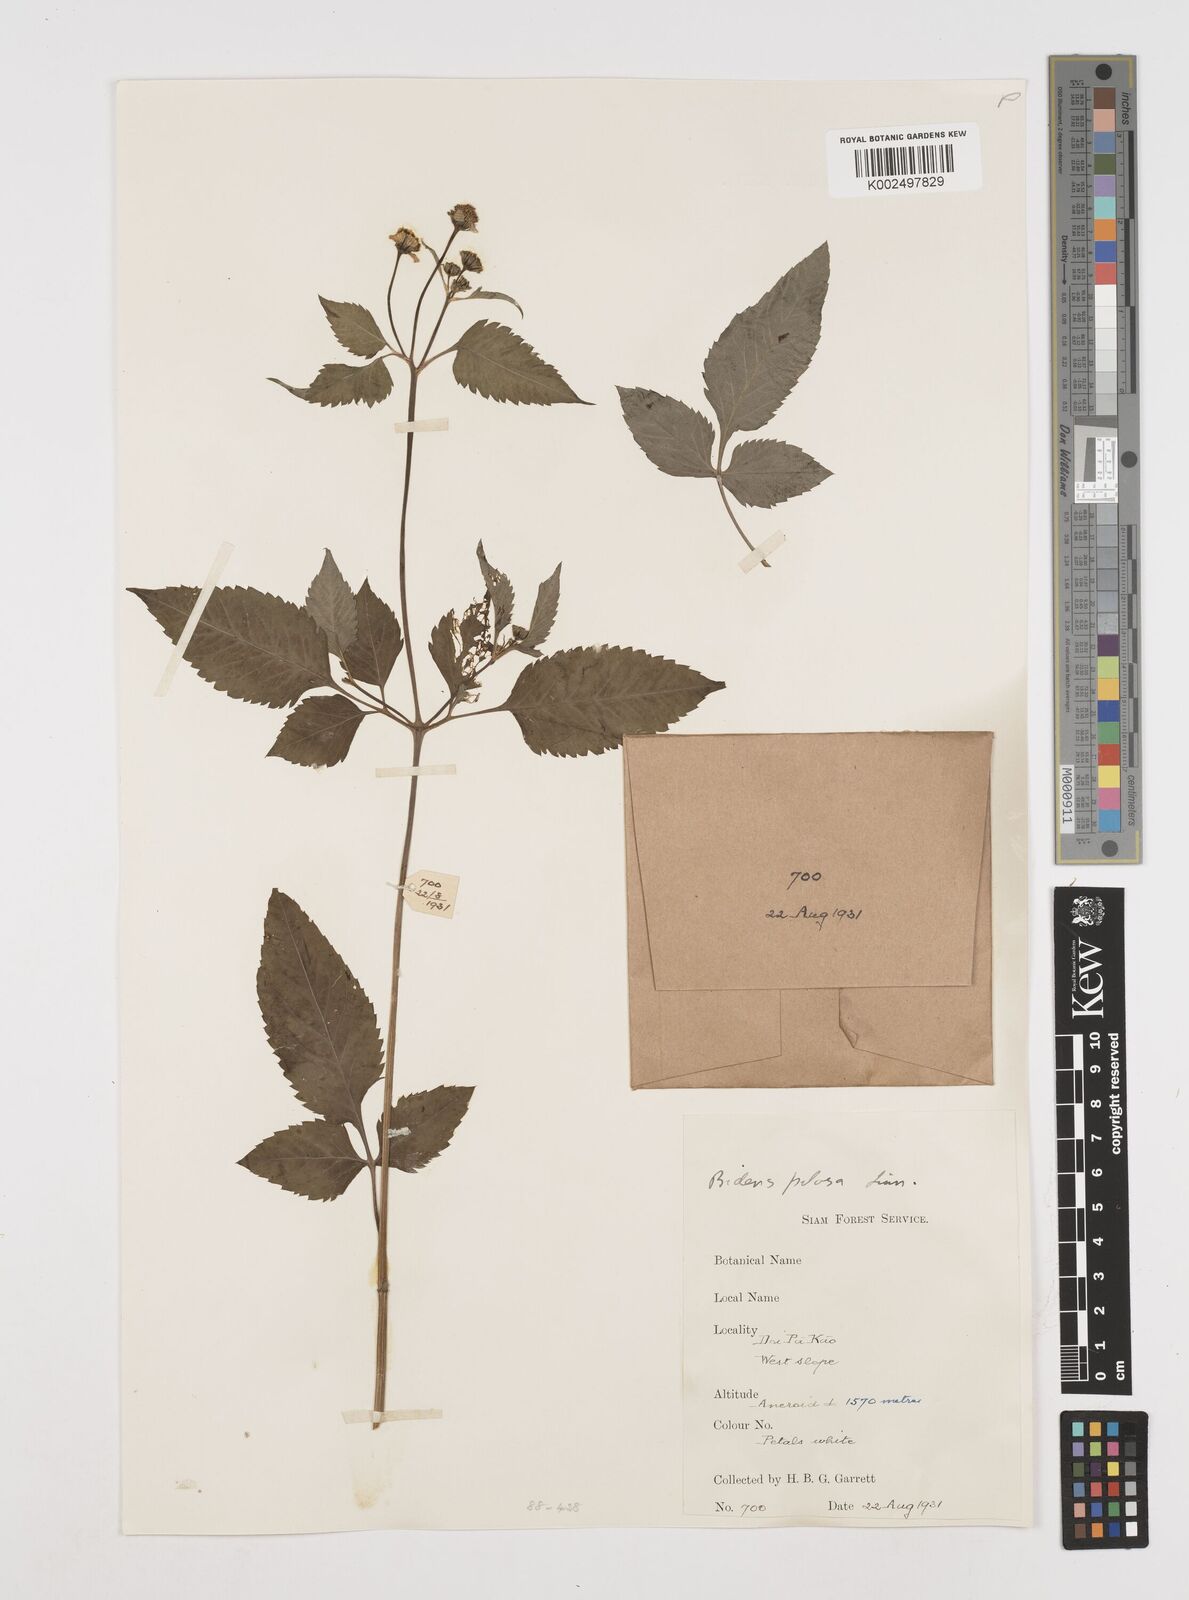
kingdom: Plantae
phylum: Tracheophyta
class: Magnoliopsida
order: Asterales
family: Asteraceae
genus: Bidens
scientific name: Bidens pilosa
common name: Black-jack
